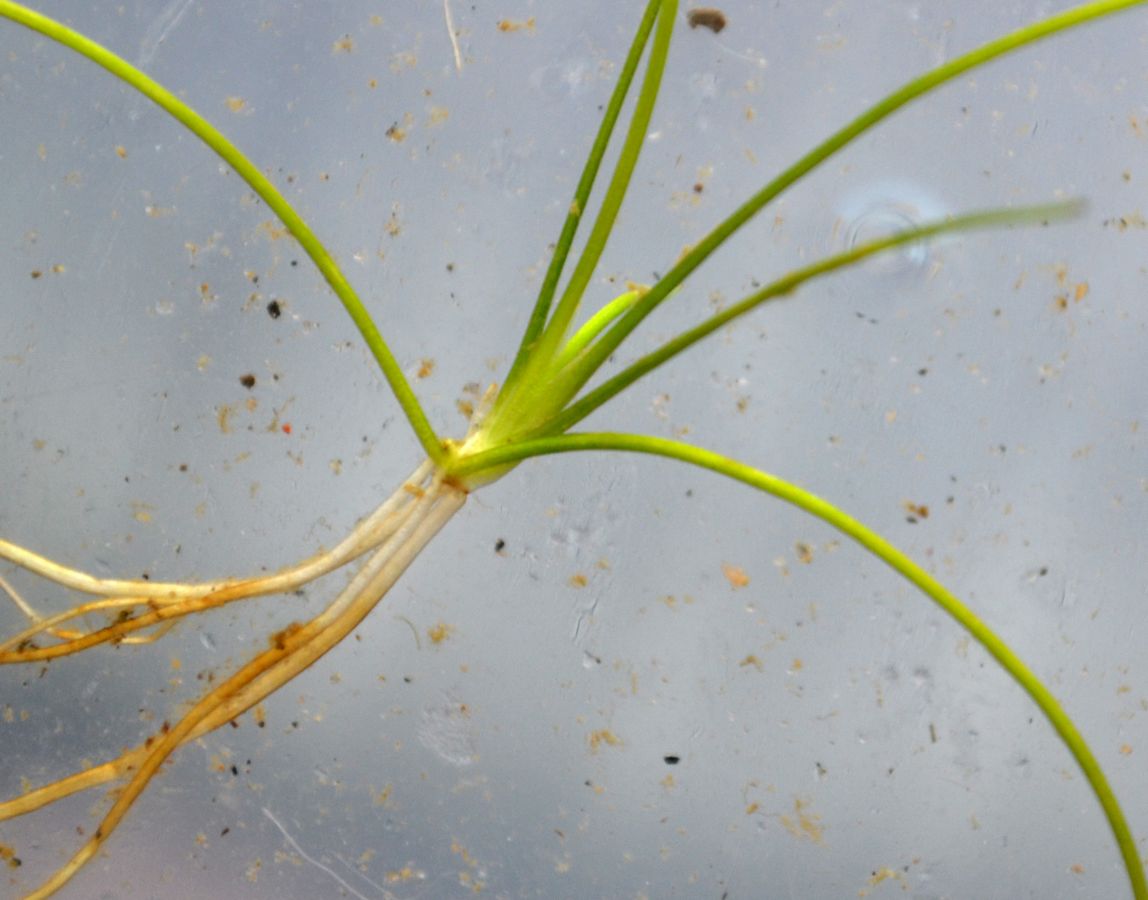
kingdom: Plantae
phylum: Tracheophyta
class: Magnoliopsida
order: Ranunculales
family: Ranunculaceae
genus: Ranunculus
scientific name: Ranunculus reptans
